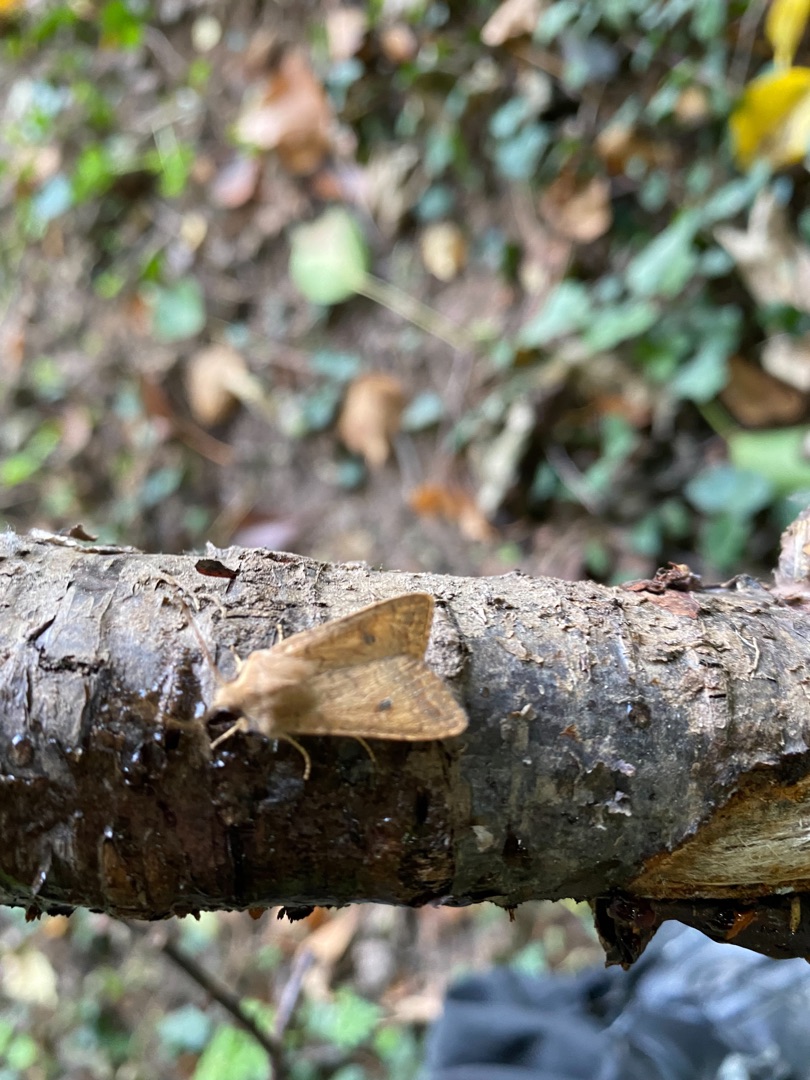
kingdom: Animalia
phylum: Arthropoda
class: Insecta
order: Lepidoptera
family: Noctuidae
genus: Sunira
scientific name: Sunira circellaris
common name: Cirkel-jordfarveugle
